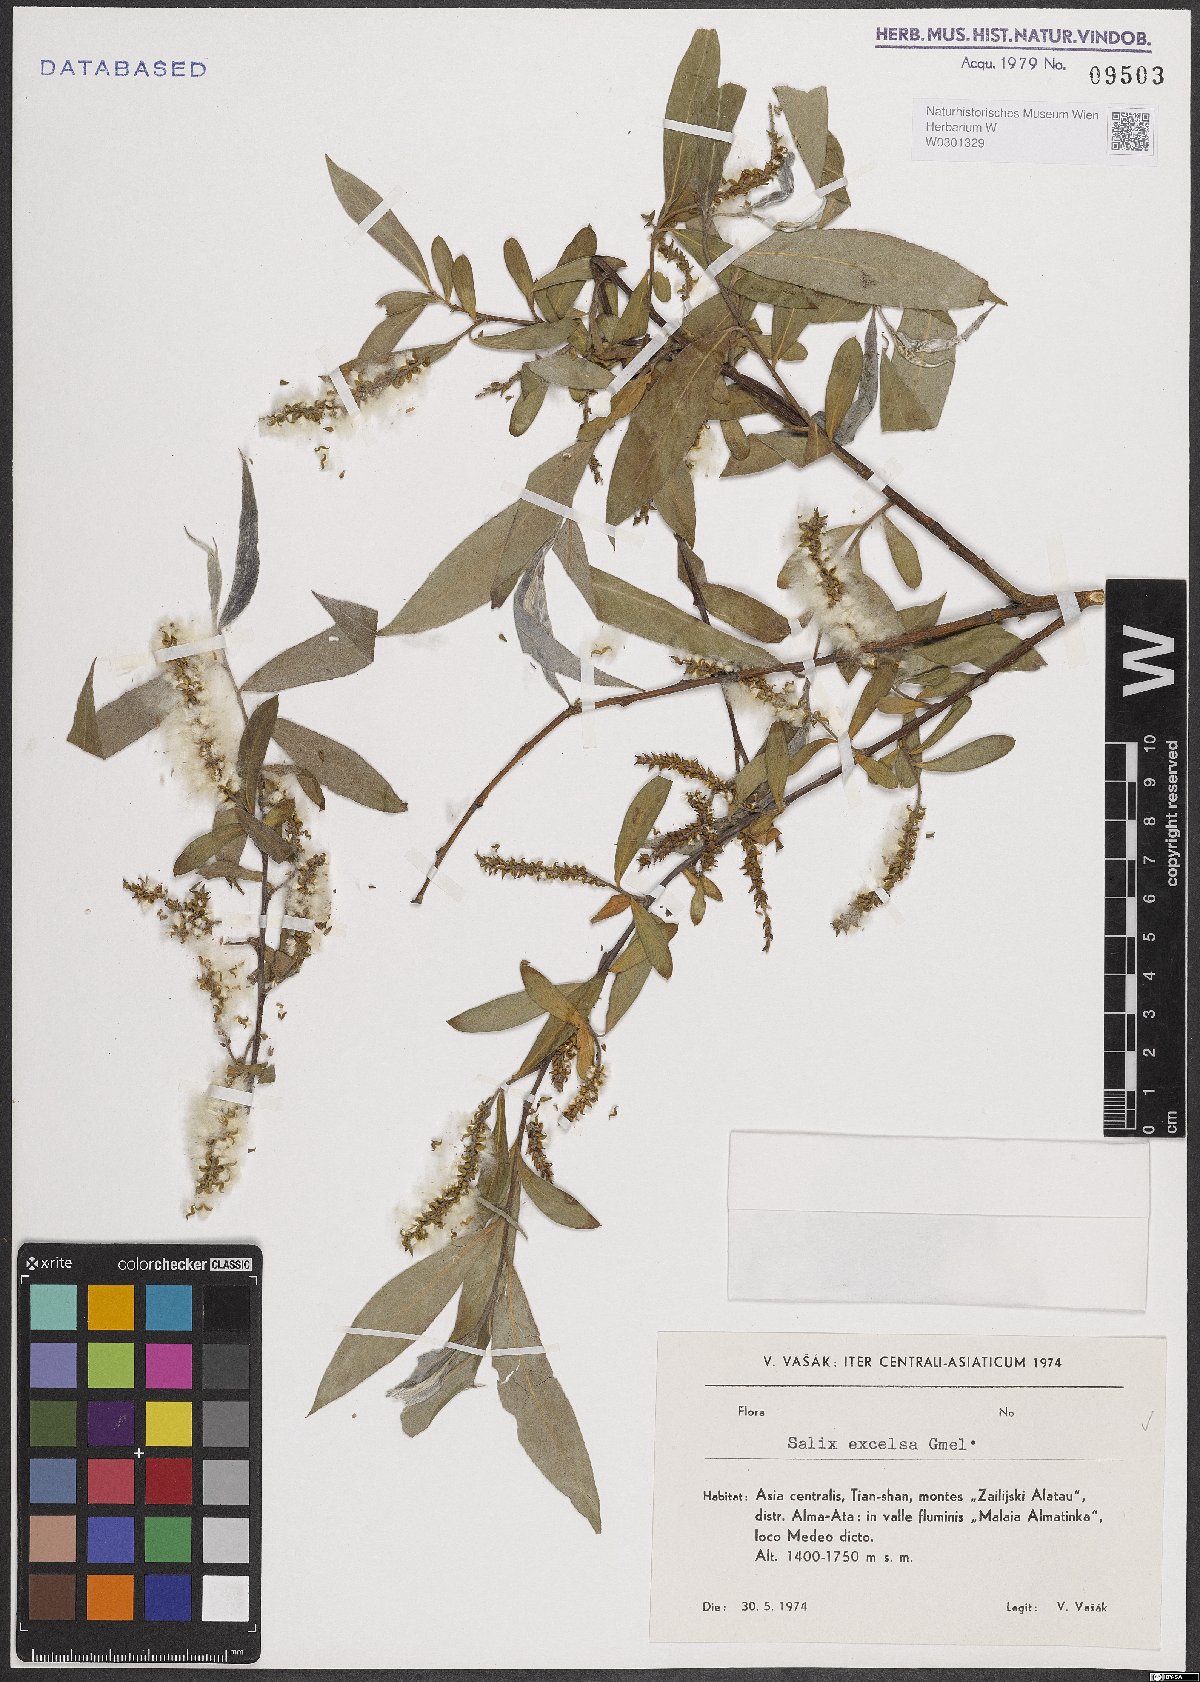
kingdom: Plantae
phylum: Tracheophyta
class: Magnoliopsida
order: Malpighiales
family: Salicaceae
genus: Salix
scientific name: Salix excelsa
